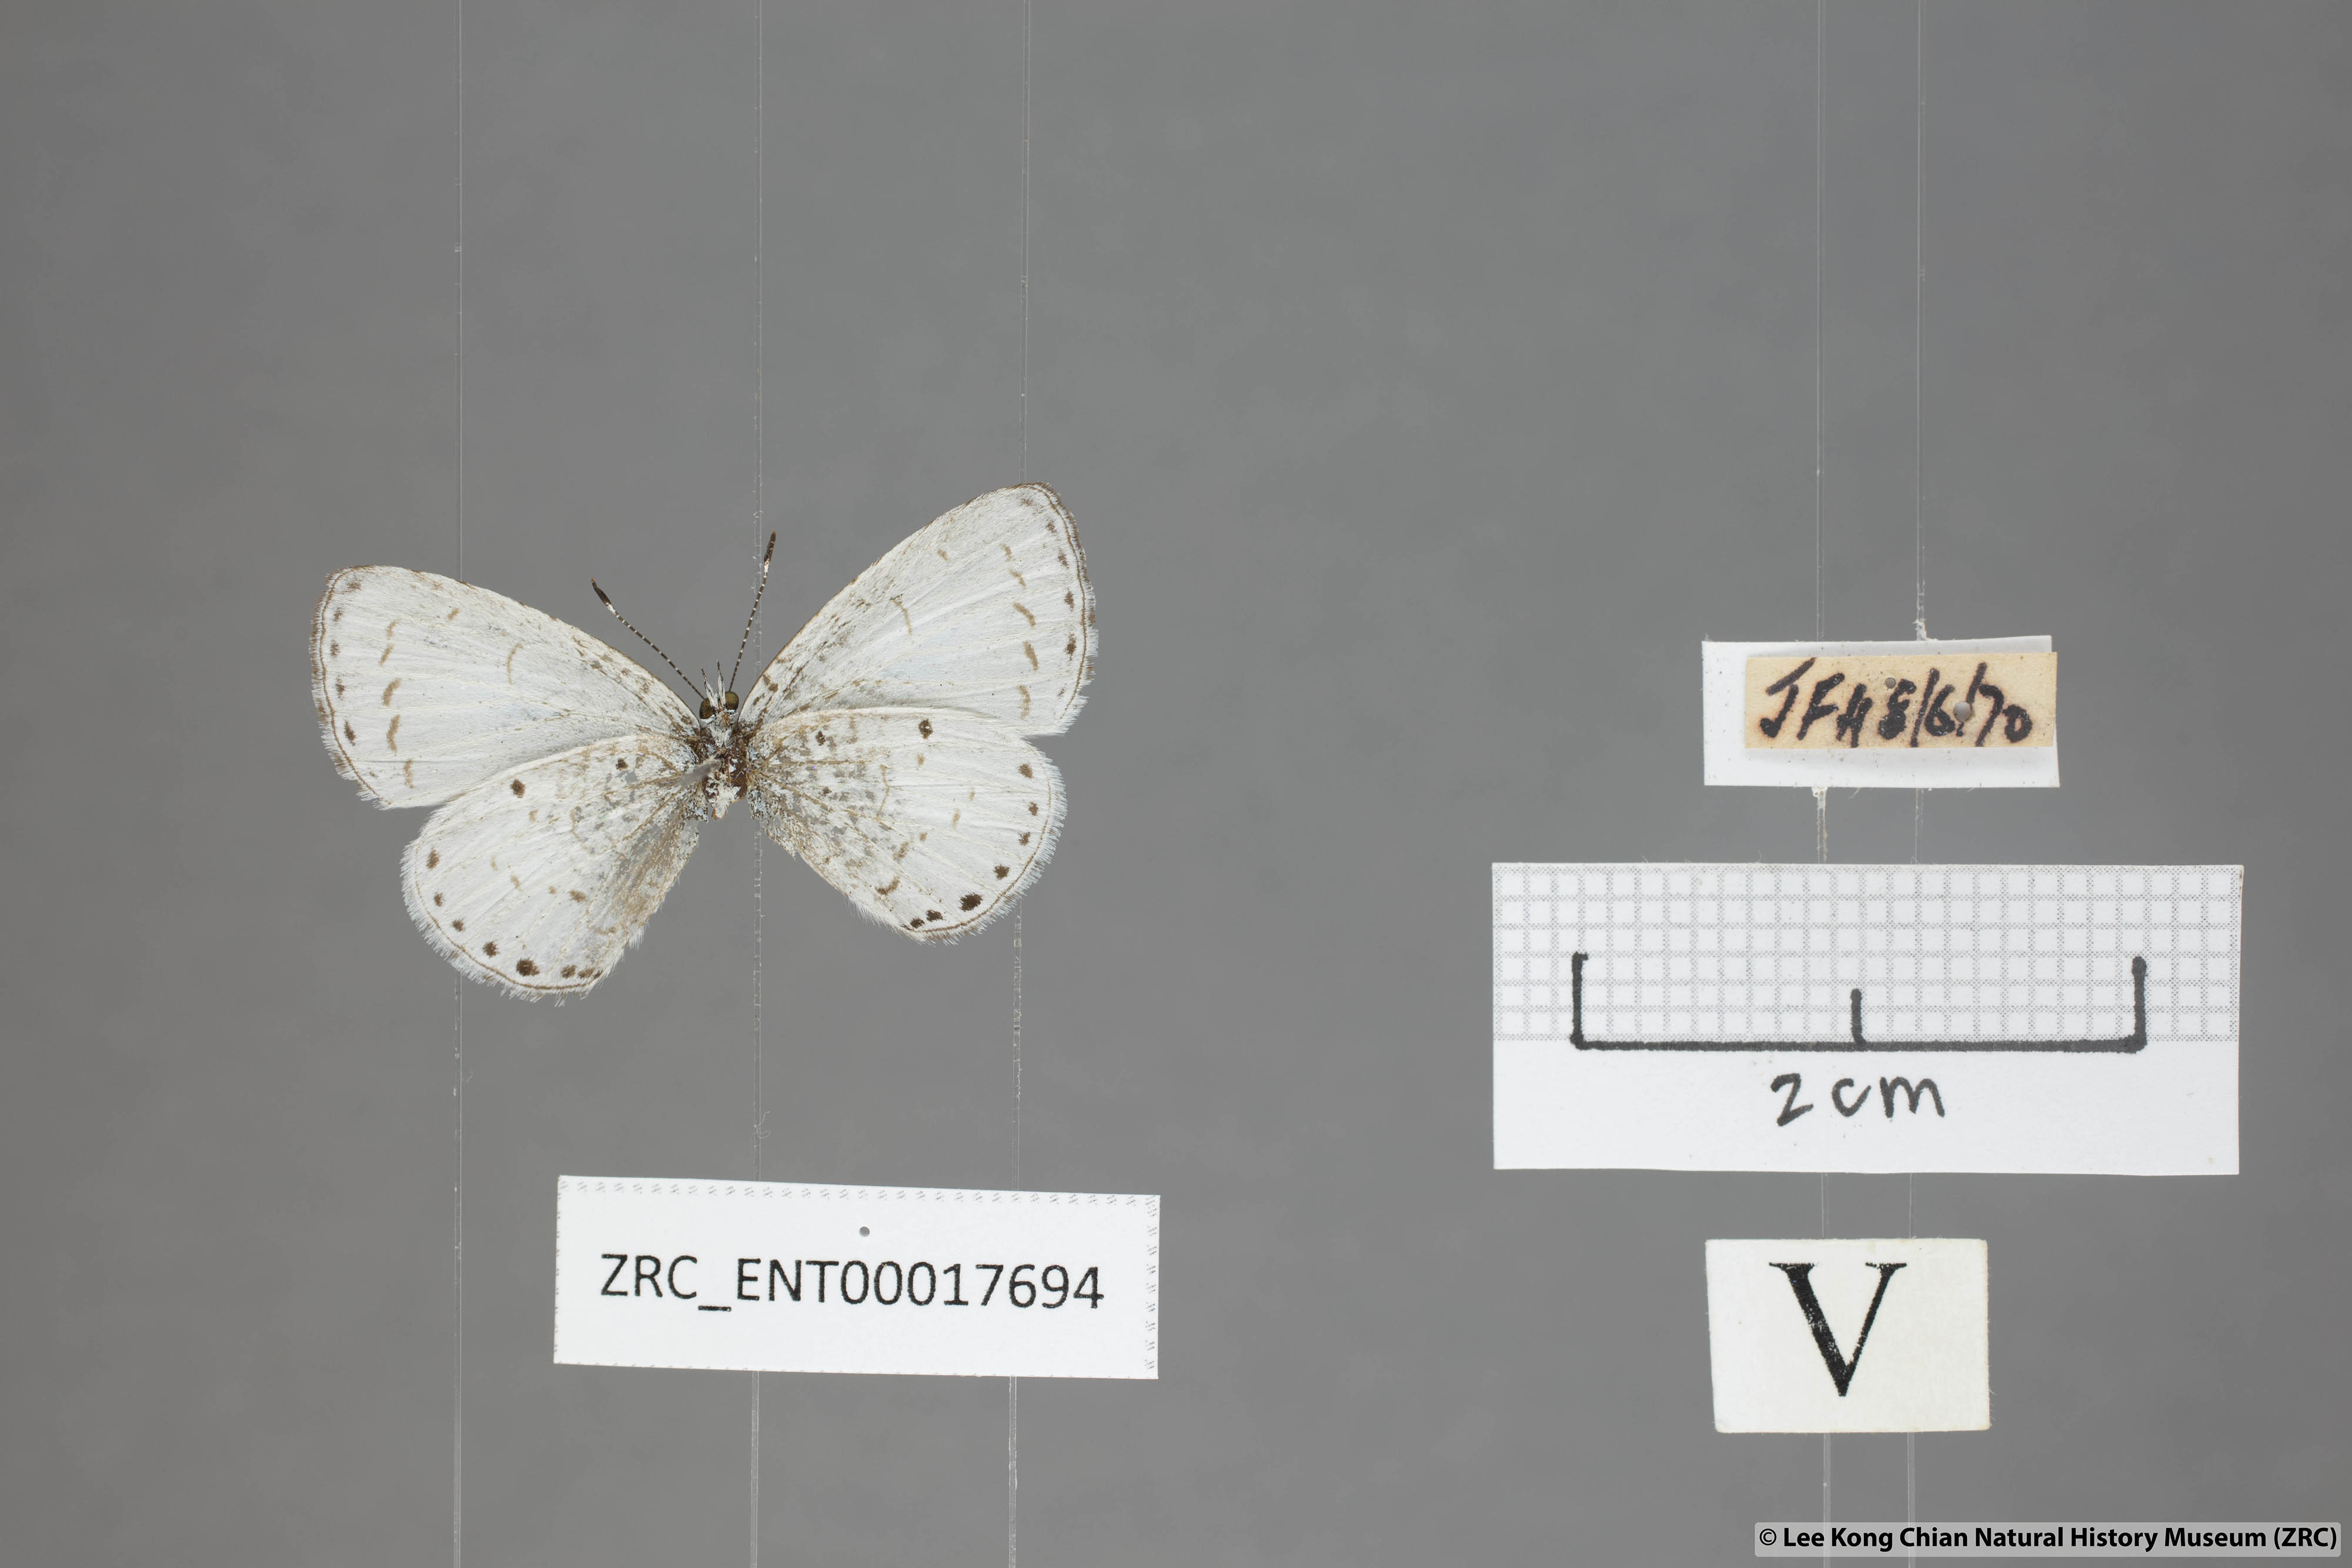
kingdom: Animalia
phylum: Arthropoda
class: Insecta
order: Lepidoptera
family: Lycaenidae
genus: Udara
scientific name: Udara camenae
